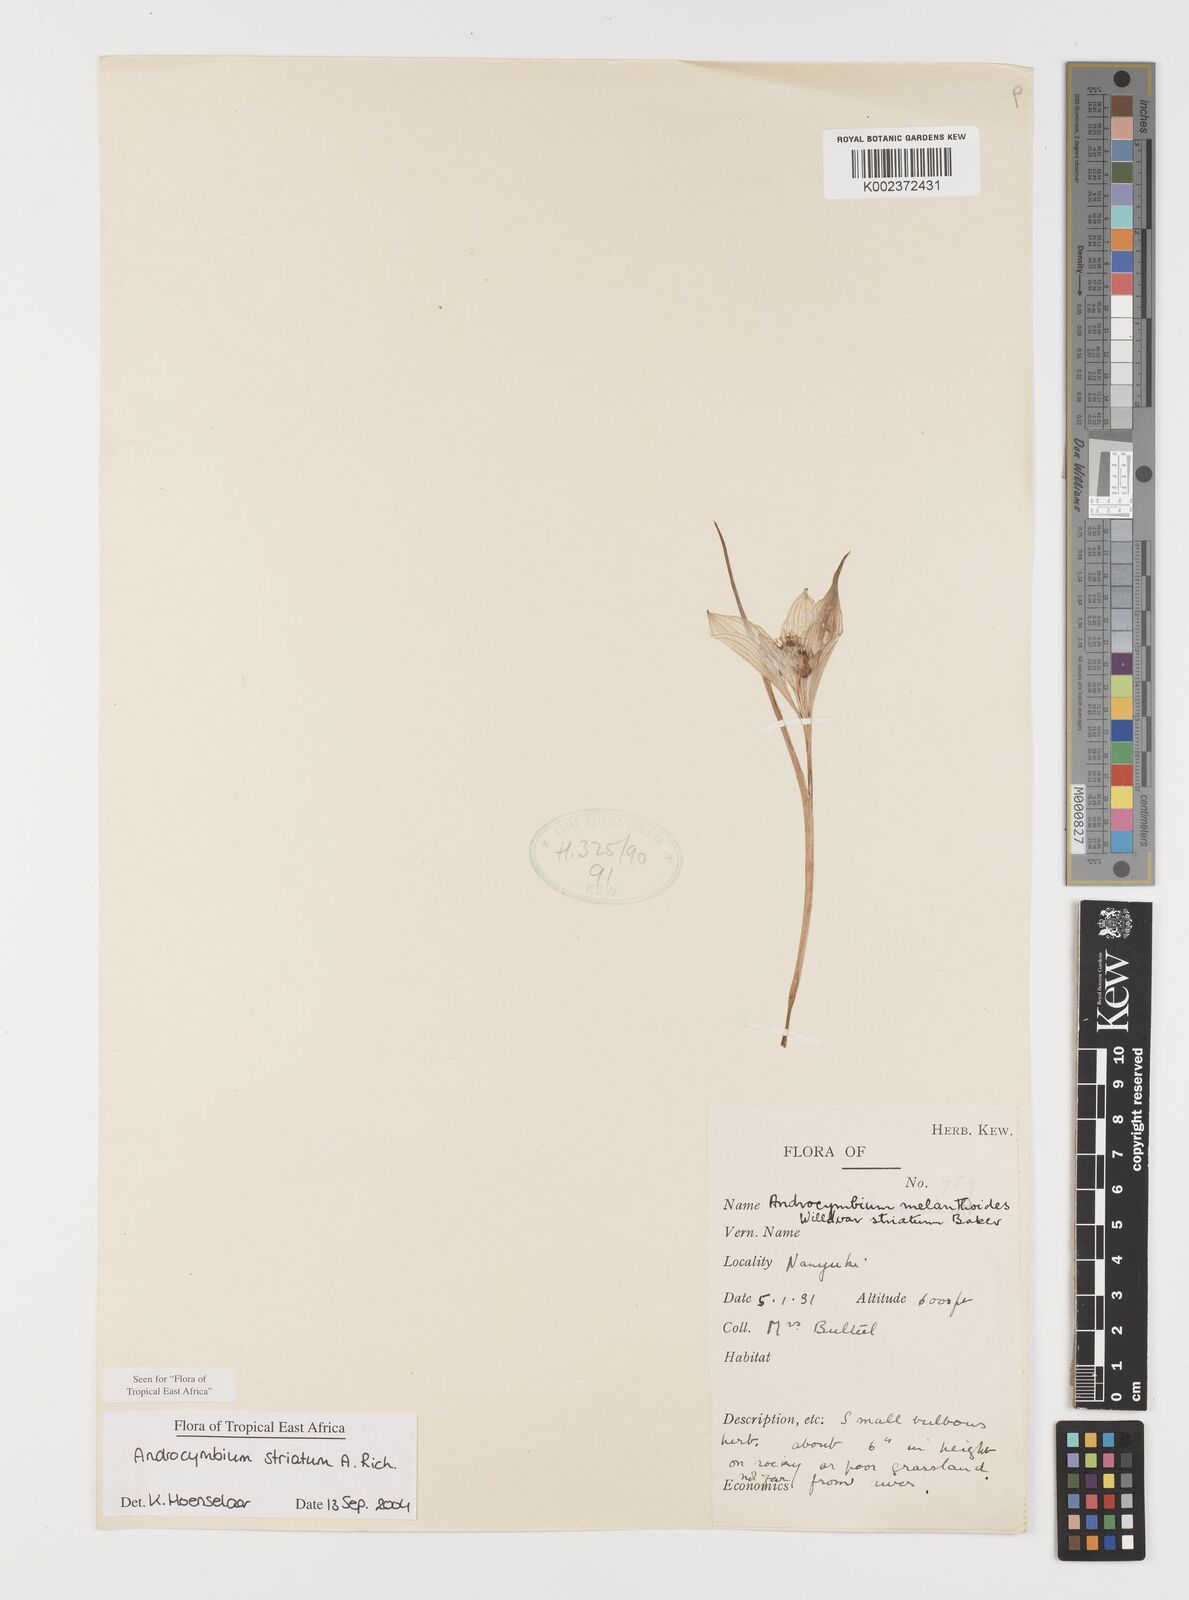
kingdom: Plantae
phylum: Tracheophyta
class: Liliopsida
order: Liliales
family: Colchicaceae
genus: Colchicum
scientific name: Colchicum striatum
